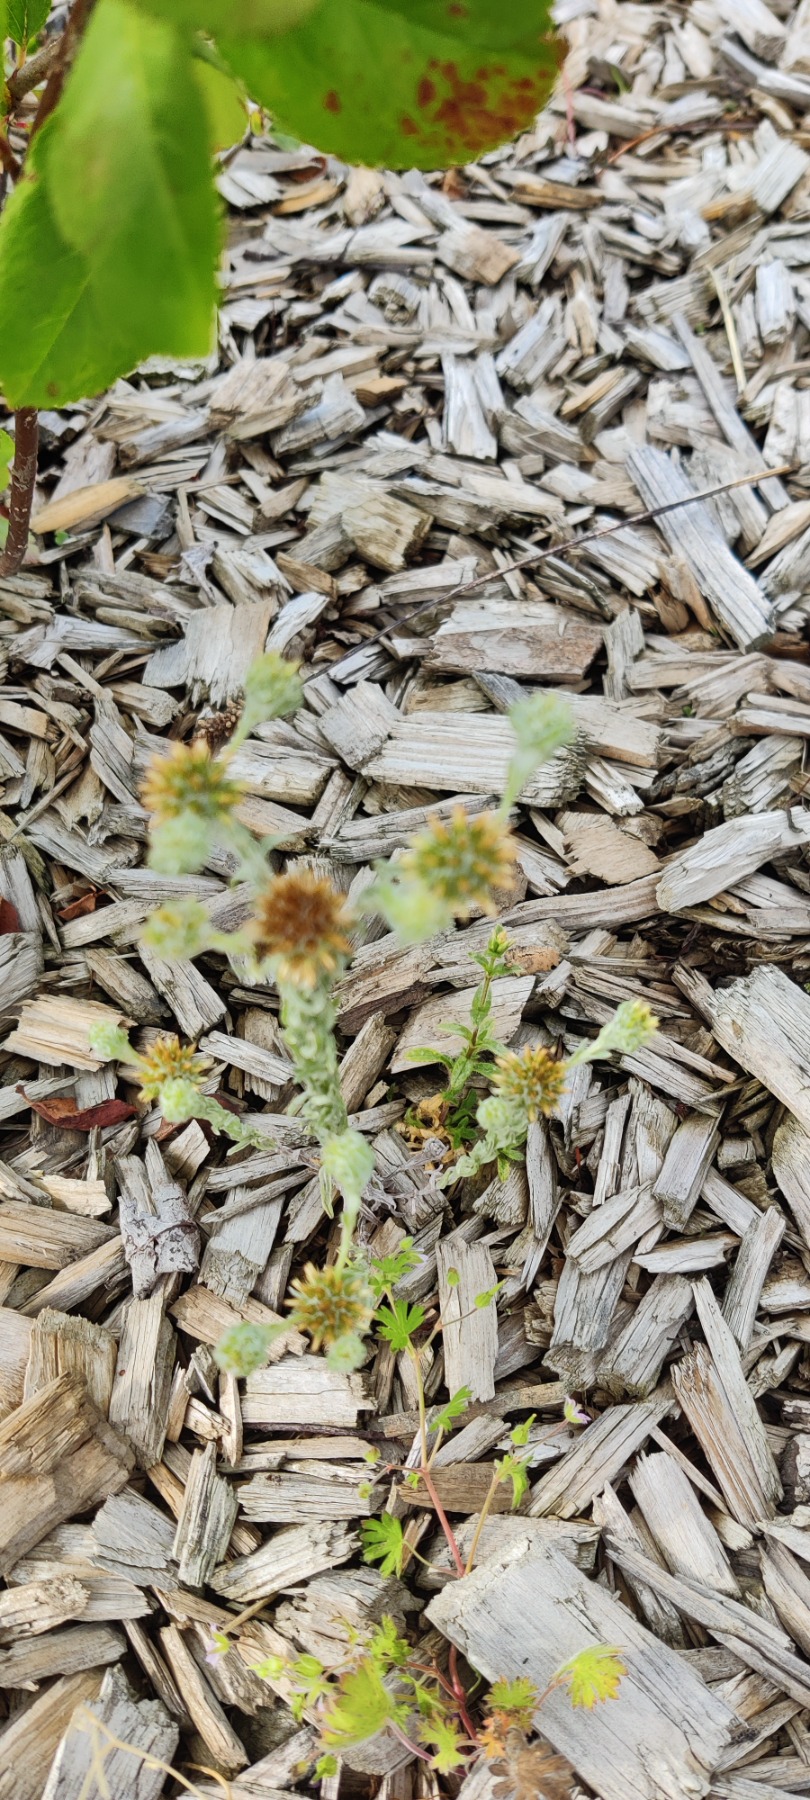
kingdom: Plantae
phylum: Tracheophyta
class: Magnoliopsida
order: Asterales
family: Asteraceae
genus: Filago
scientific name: Filago germanica
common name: Kugle-museurt
